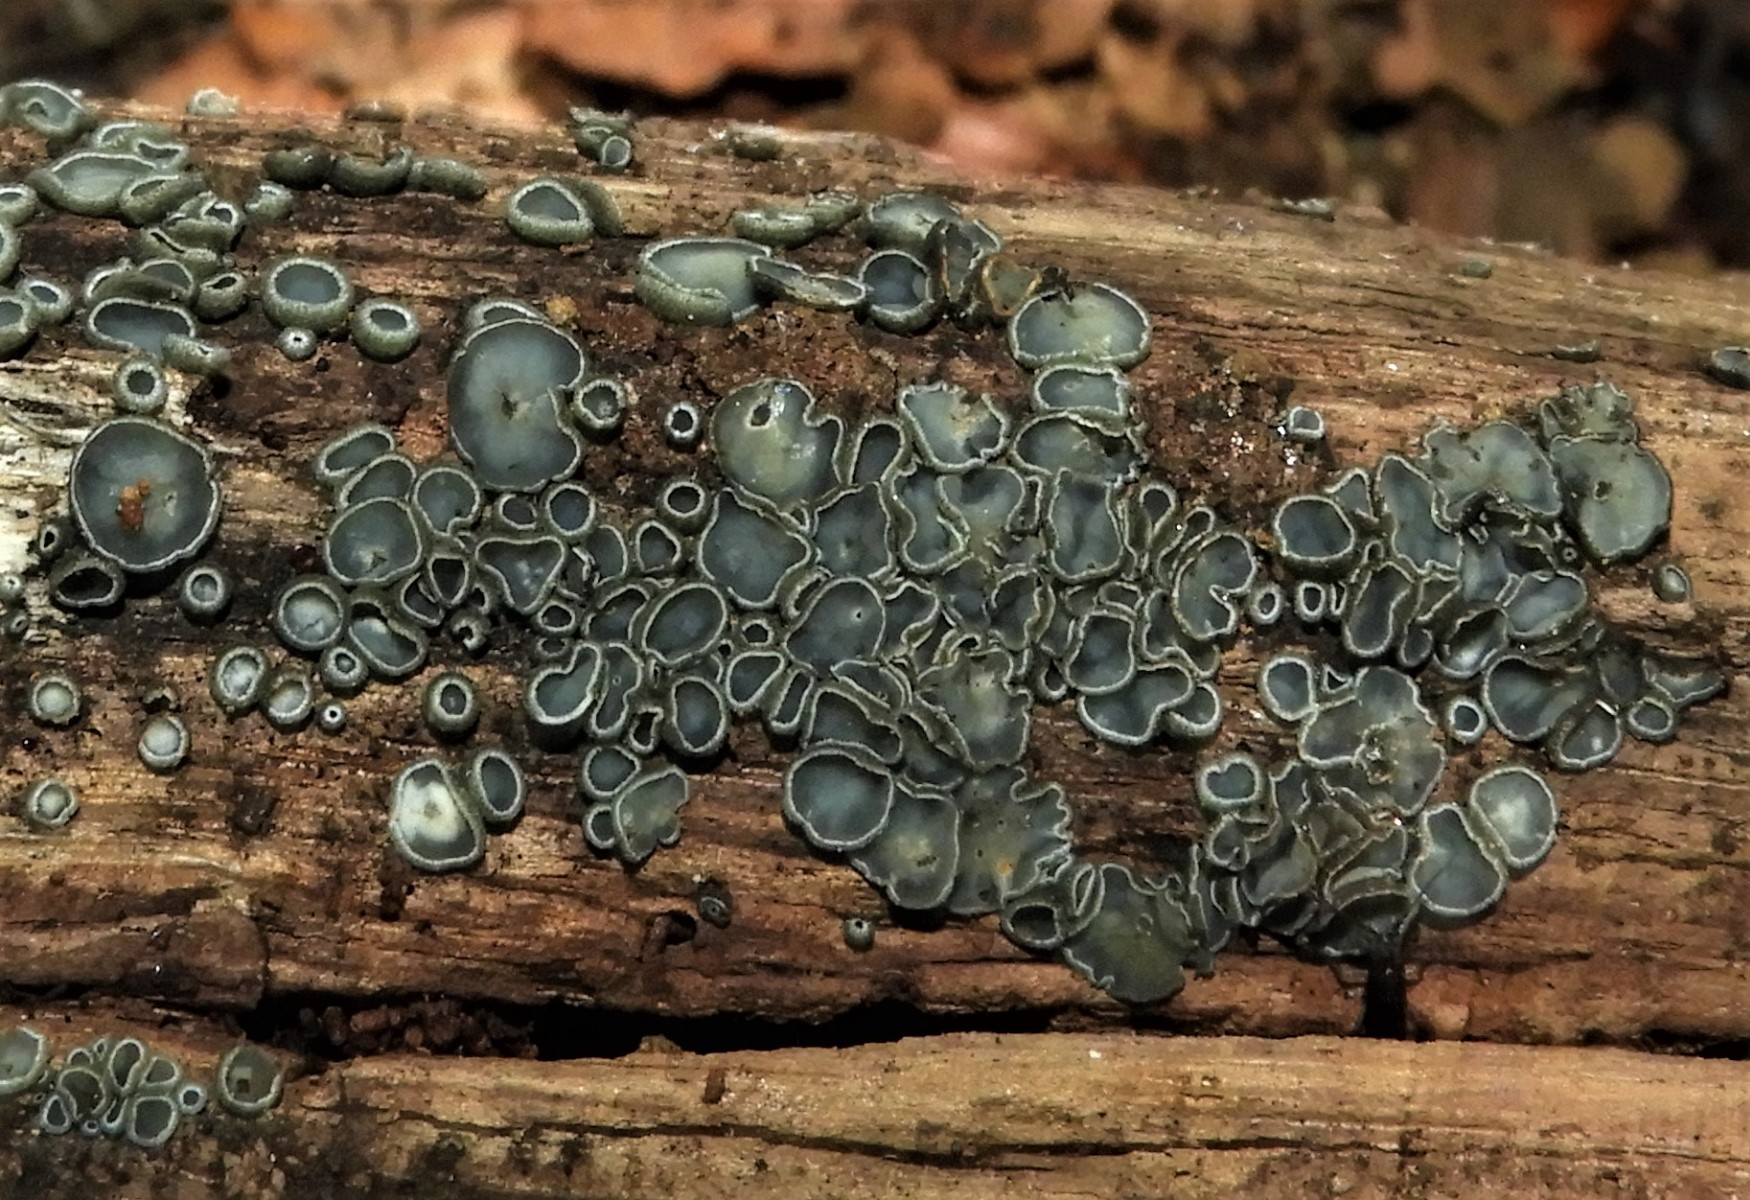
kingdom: Fungi
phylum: Ascomycota
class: Leotiomycetes
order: Helotiales
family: Mollisiaceae
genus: Mollisia
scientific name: Mollisia
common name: gråskive
